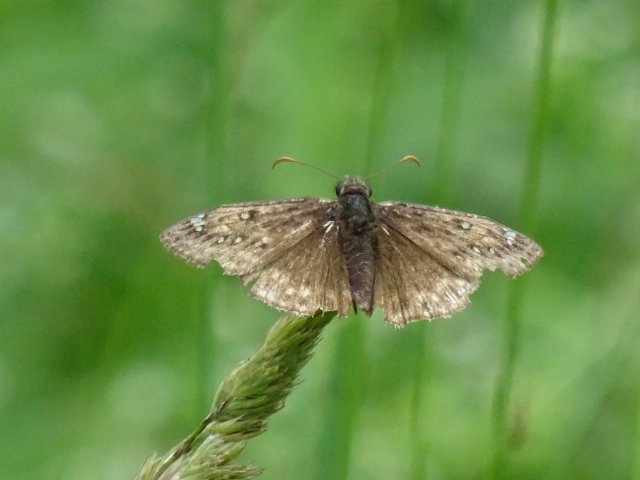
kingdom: Animalia
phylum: Arthropoda
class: Insecta
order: Lepidoptera
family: Hesperiidae
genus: Gesta
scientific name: Gesta
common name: Juvenal's Duskywing
